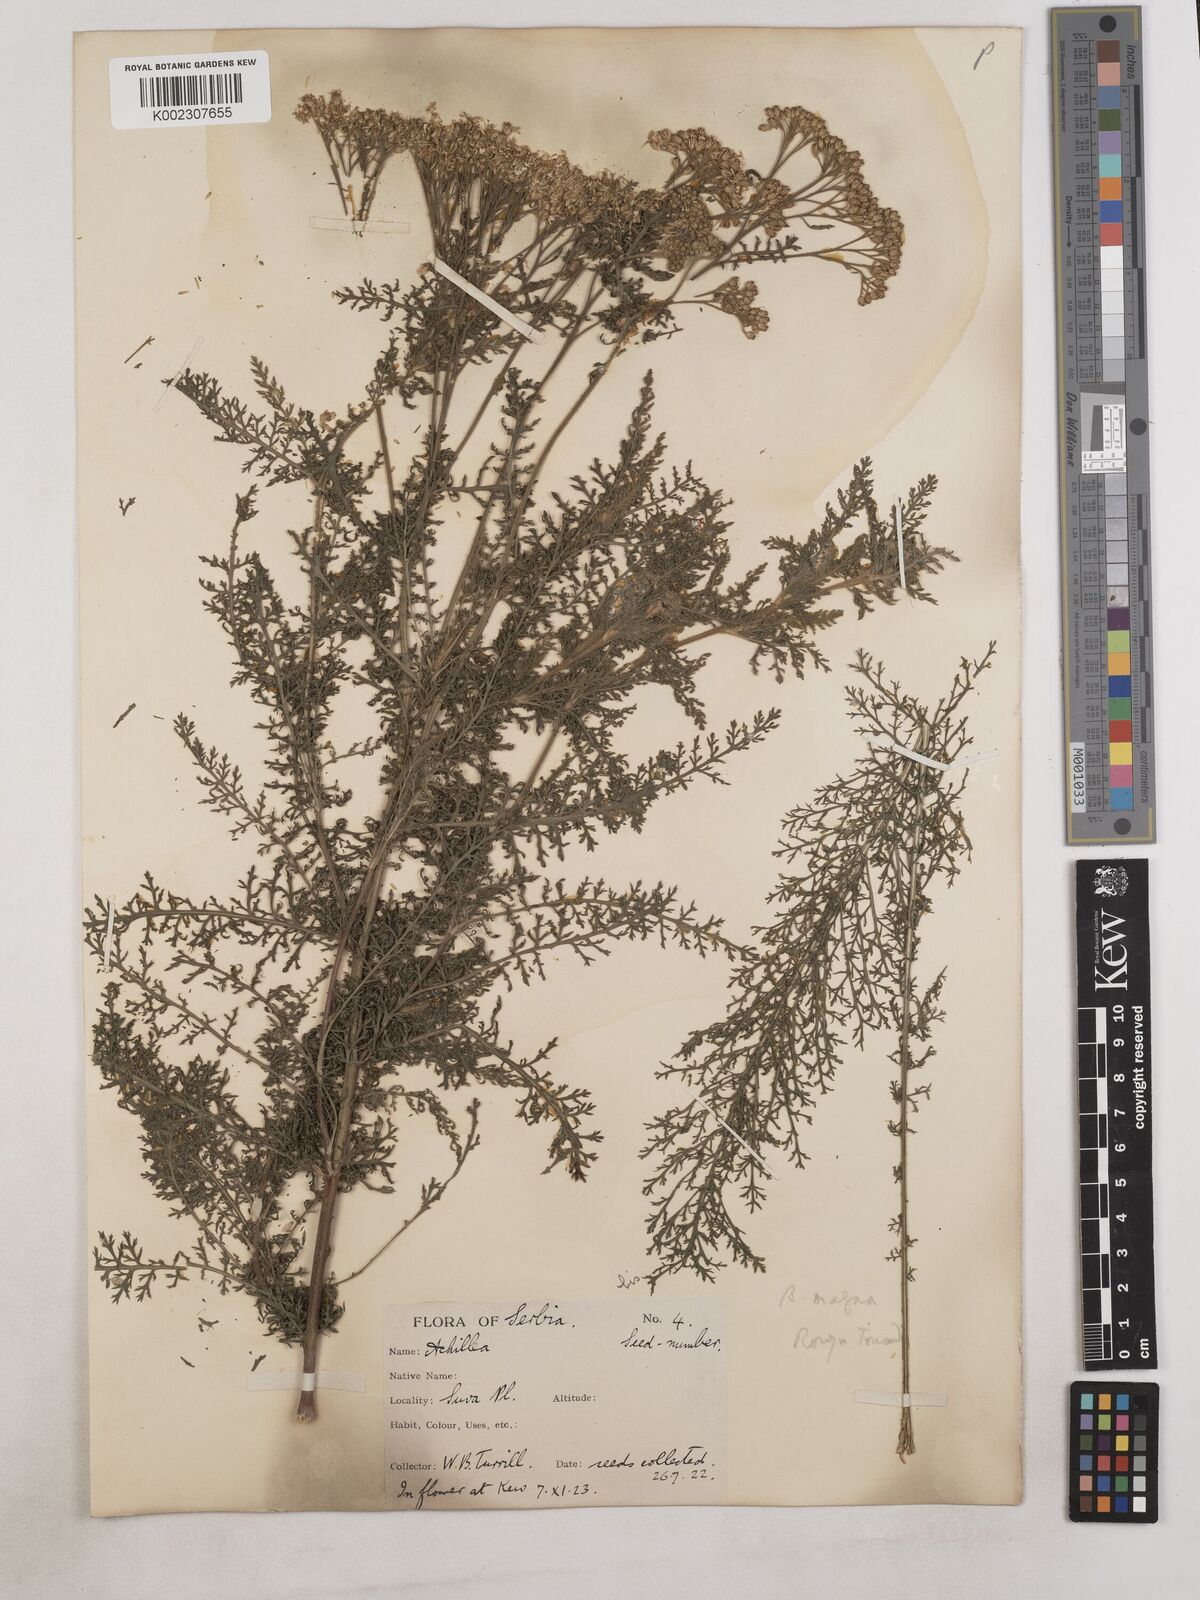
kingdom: Plantae
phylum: Tracheophyta
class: Magnoliopsida
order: Asterales
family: Asteraceae
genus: Achillea
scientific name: Achillea
